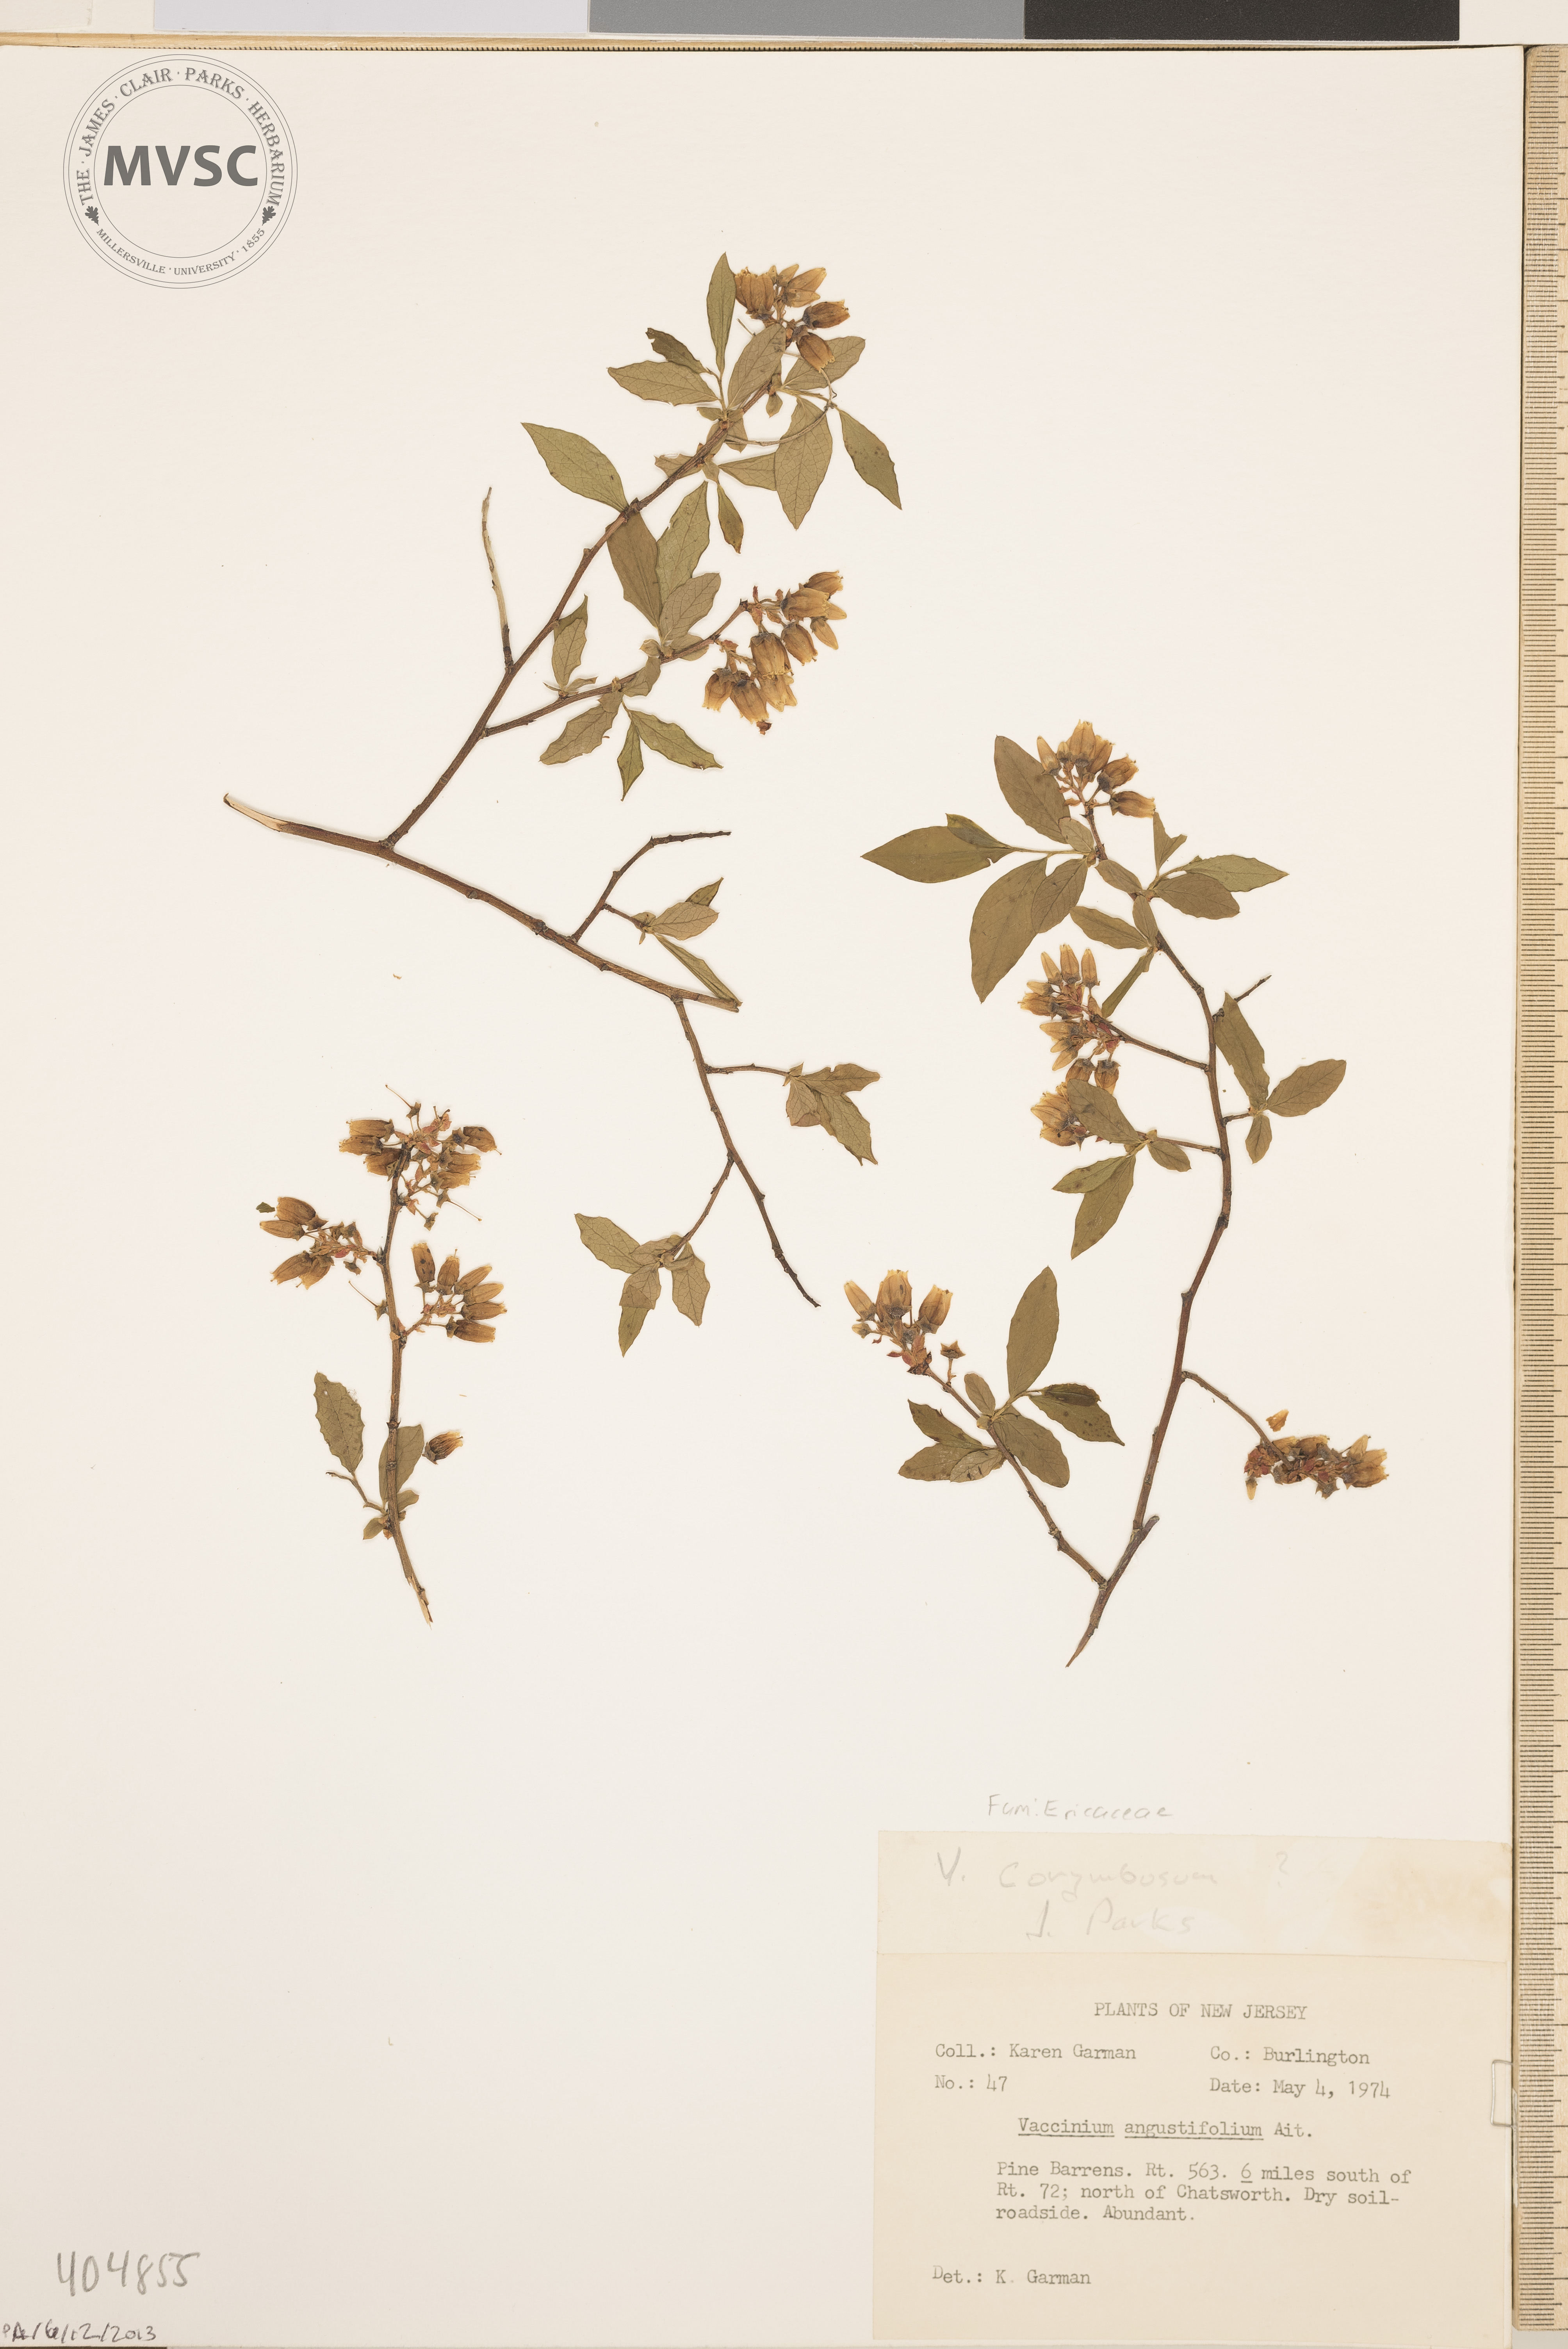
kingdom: Plantae
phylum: Tracheophyta
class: Magnoliopsida
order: Ericales
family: Ericaceae
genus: Vaccinium
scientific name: Vaccinium corymbosum
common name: Blueberry
